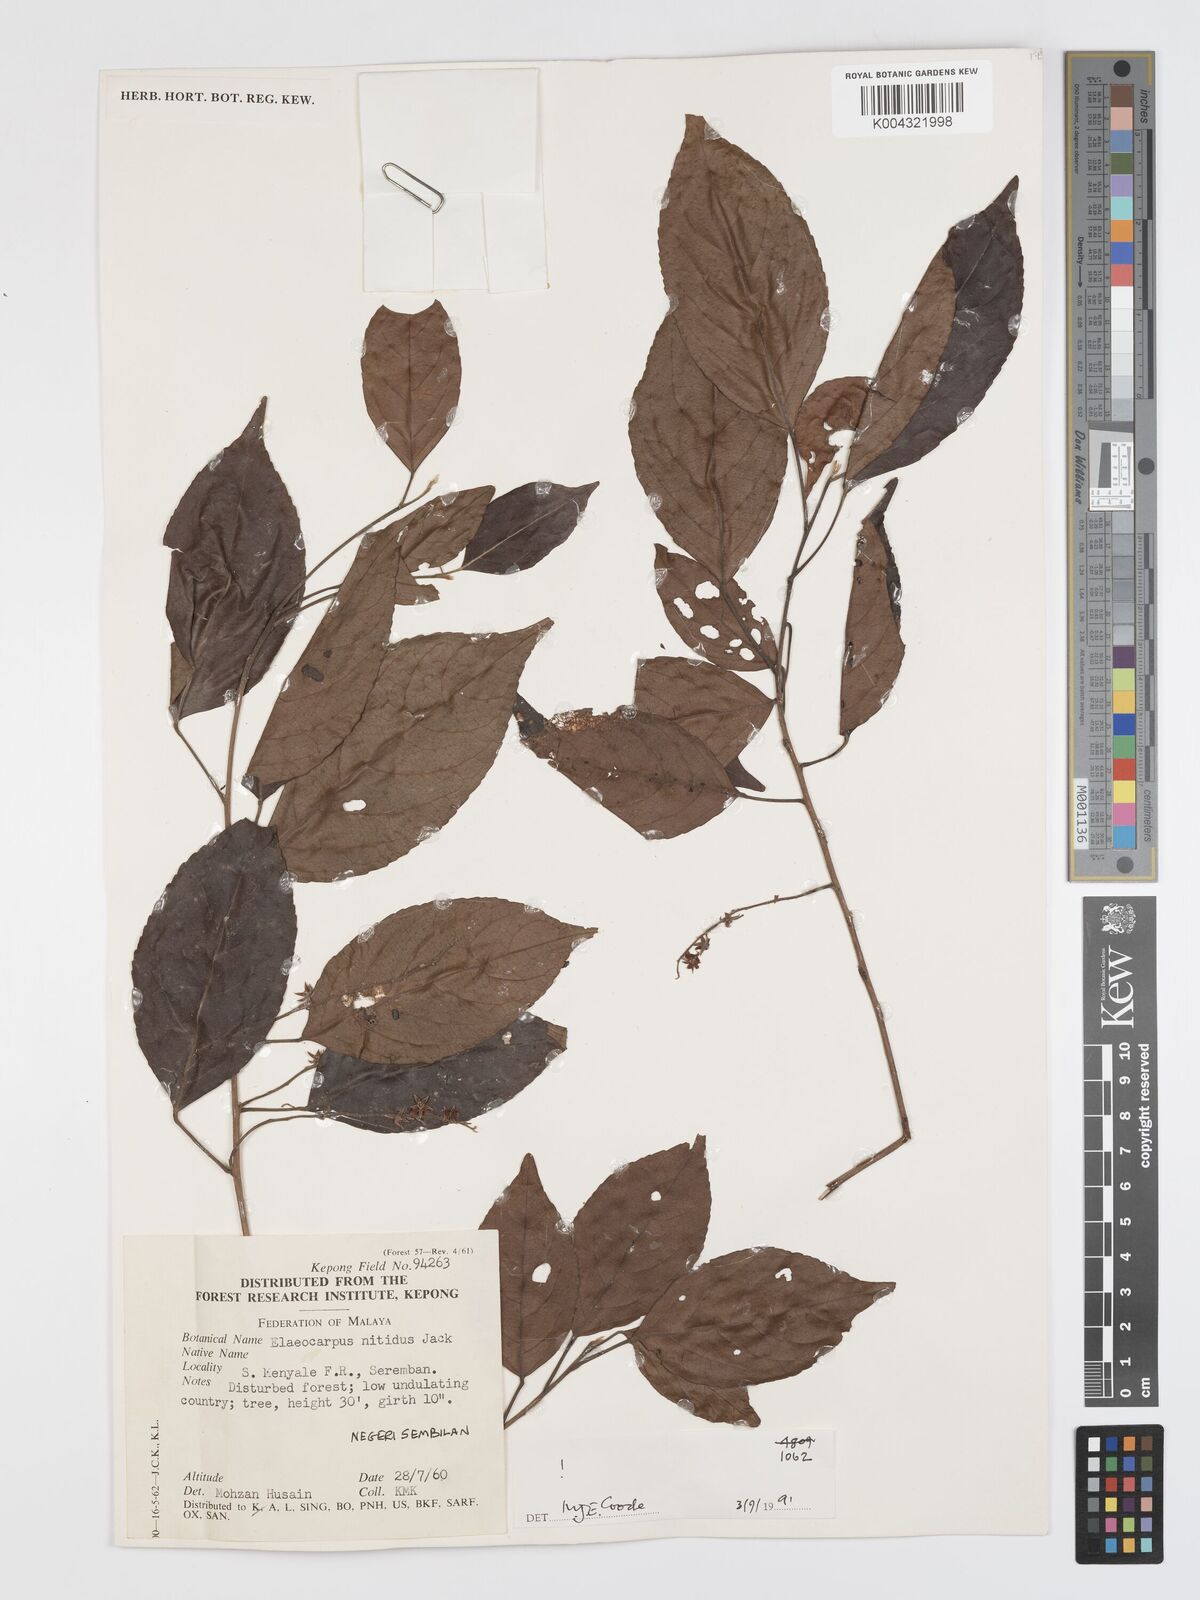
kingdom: Plantae
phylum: Tracheophyta
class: Magnoliopsida
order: Oxalidales
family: Elaeocarpaceae
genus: Elaeocarpus
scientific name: Elaeocarpus nitidus
